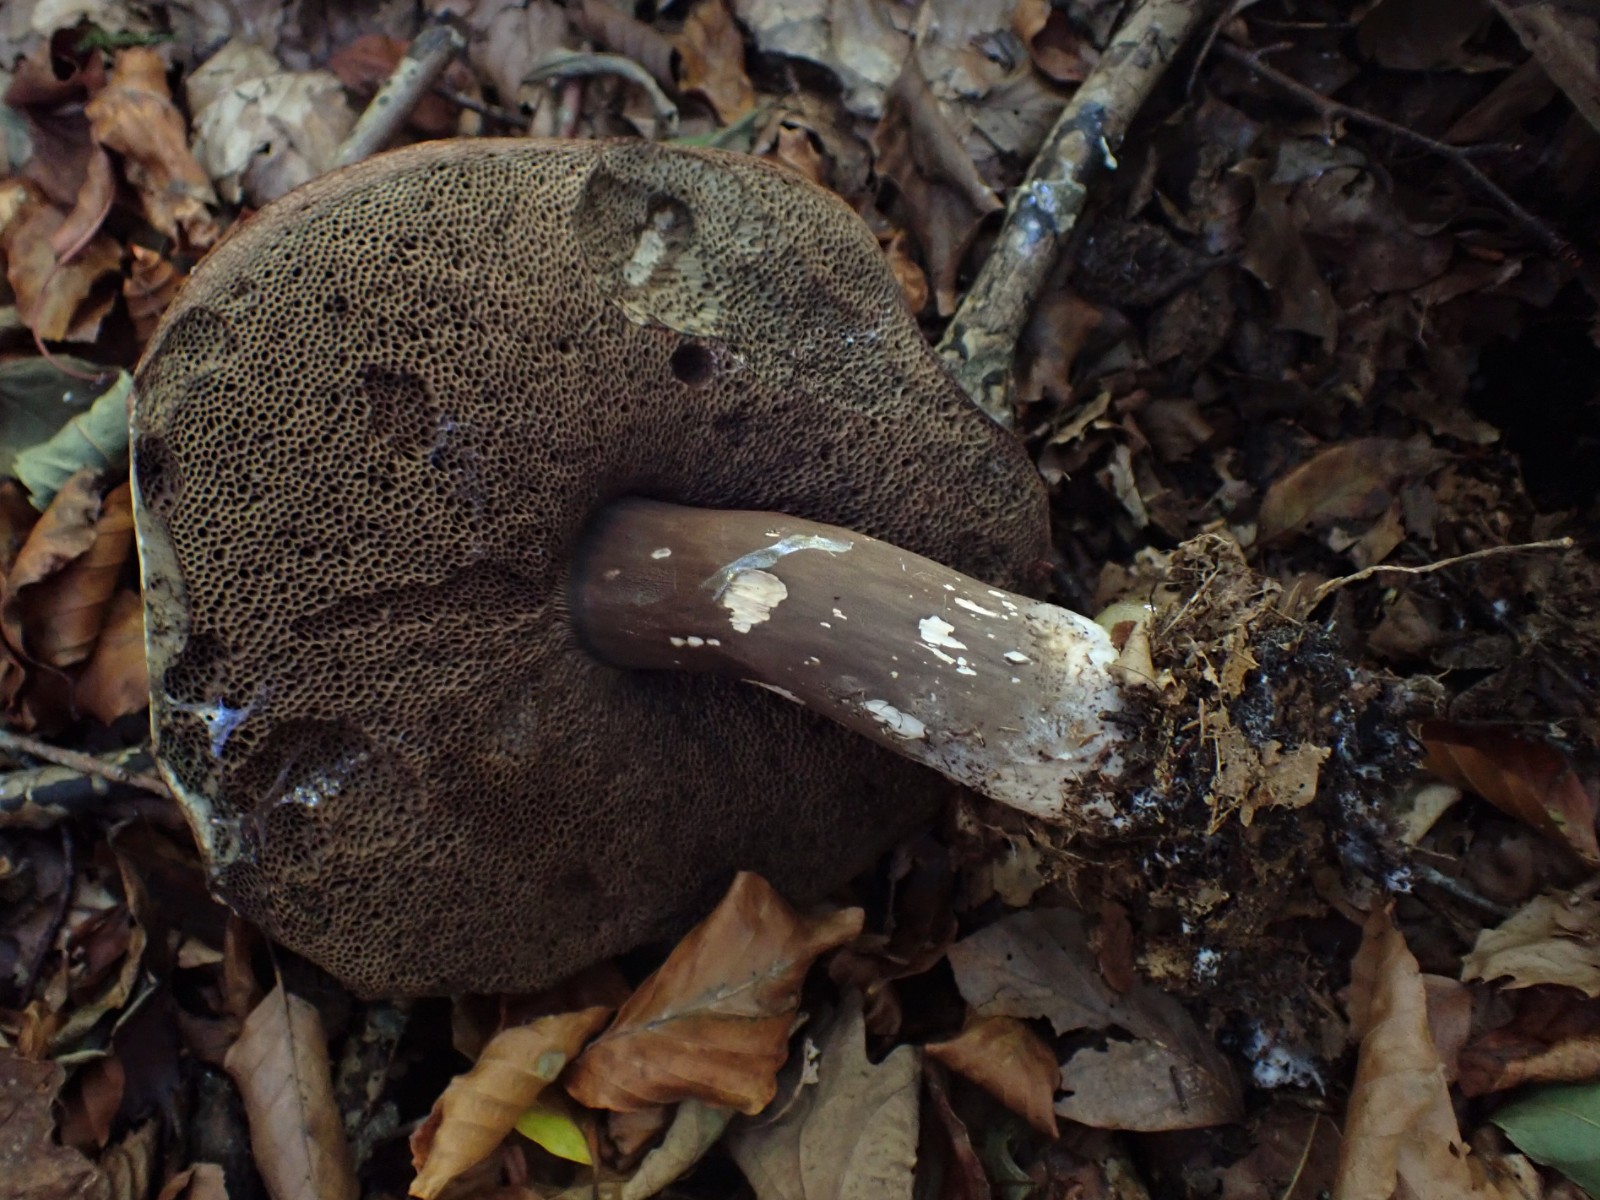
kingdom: Fungi
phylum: Basidiomycota
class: Agaricomycetes
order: Boletales
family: Boletaceae
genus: Porphyrellus
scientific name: Porphyrellus porphyrosporus
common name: sodrørhat
